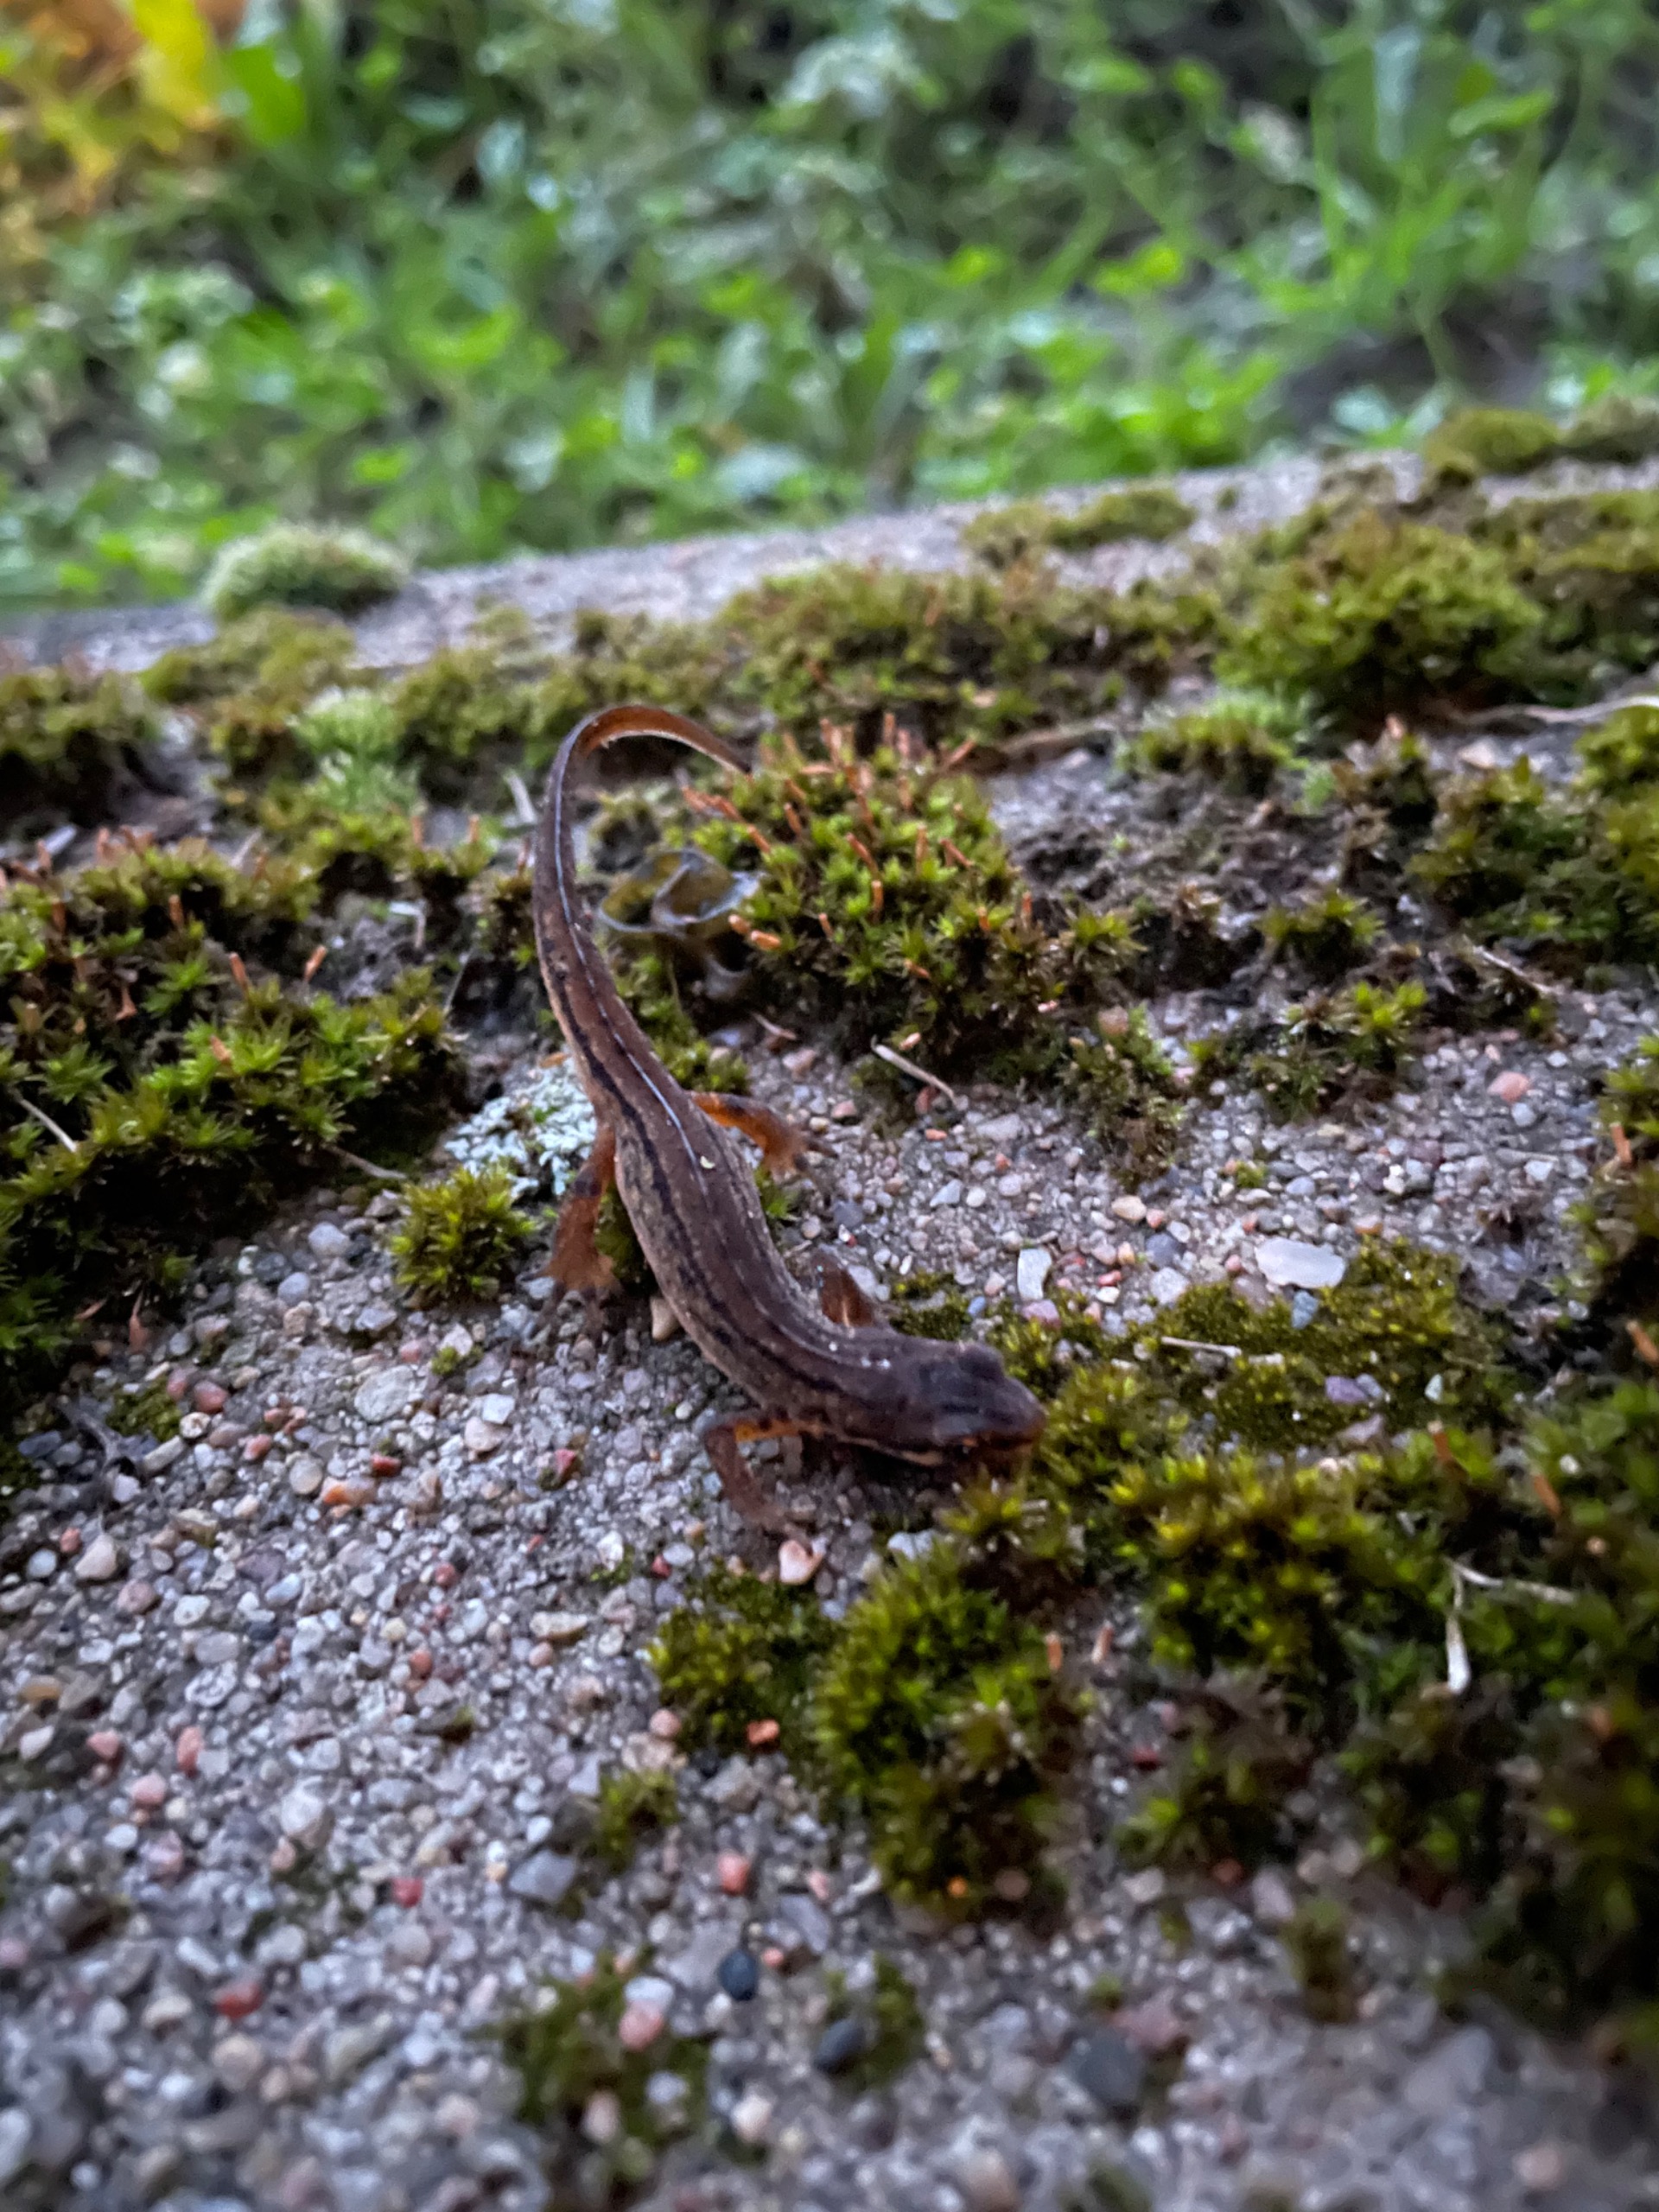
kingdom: Animalia
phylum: Chordata
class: Amphibia
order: Caudata
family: Salamandridae
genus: Lissotriton
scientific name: Lissotriton vulgaris
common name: Lille vandsalamander
